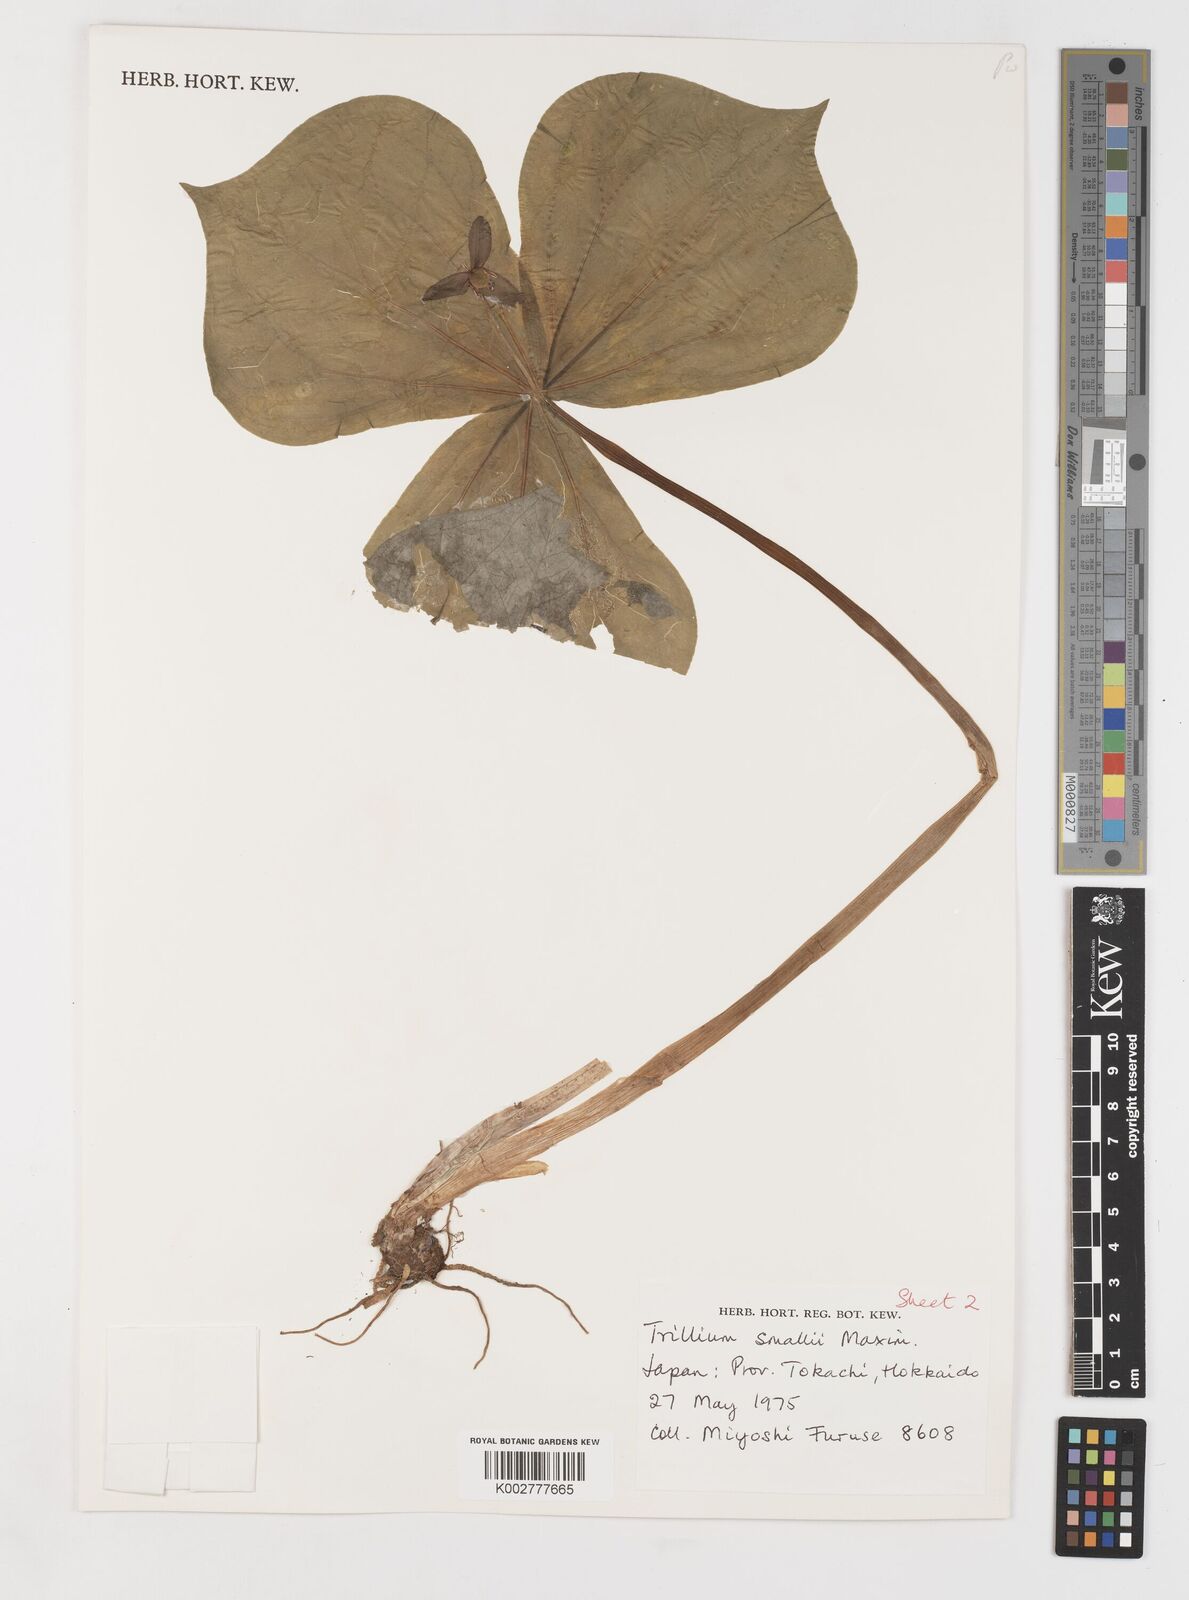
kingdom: Plantae
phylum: Tracheophyta
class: Liliopsida
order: Liliales
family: Melanthiaceae
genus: Trillium
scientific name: Trillium smallii
